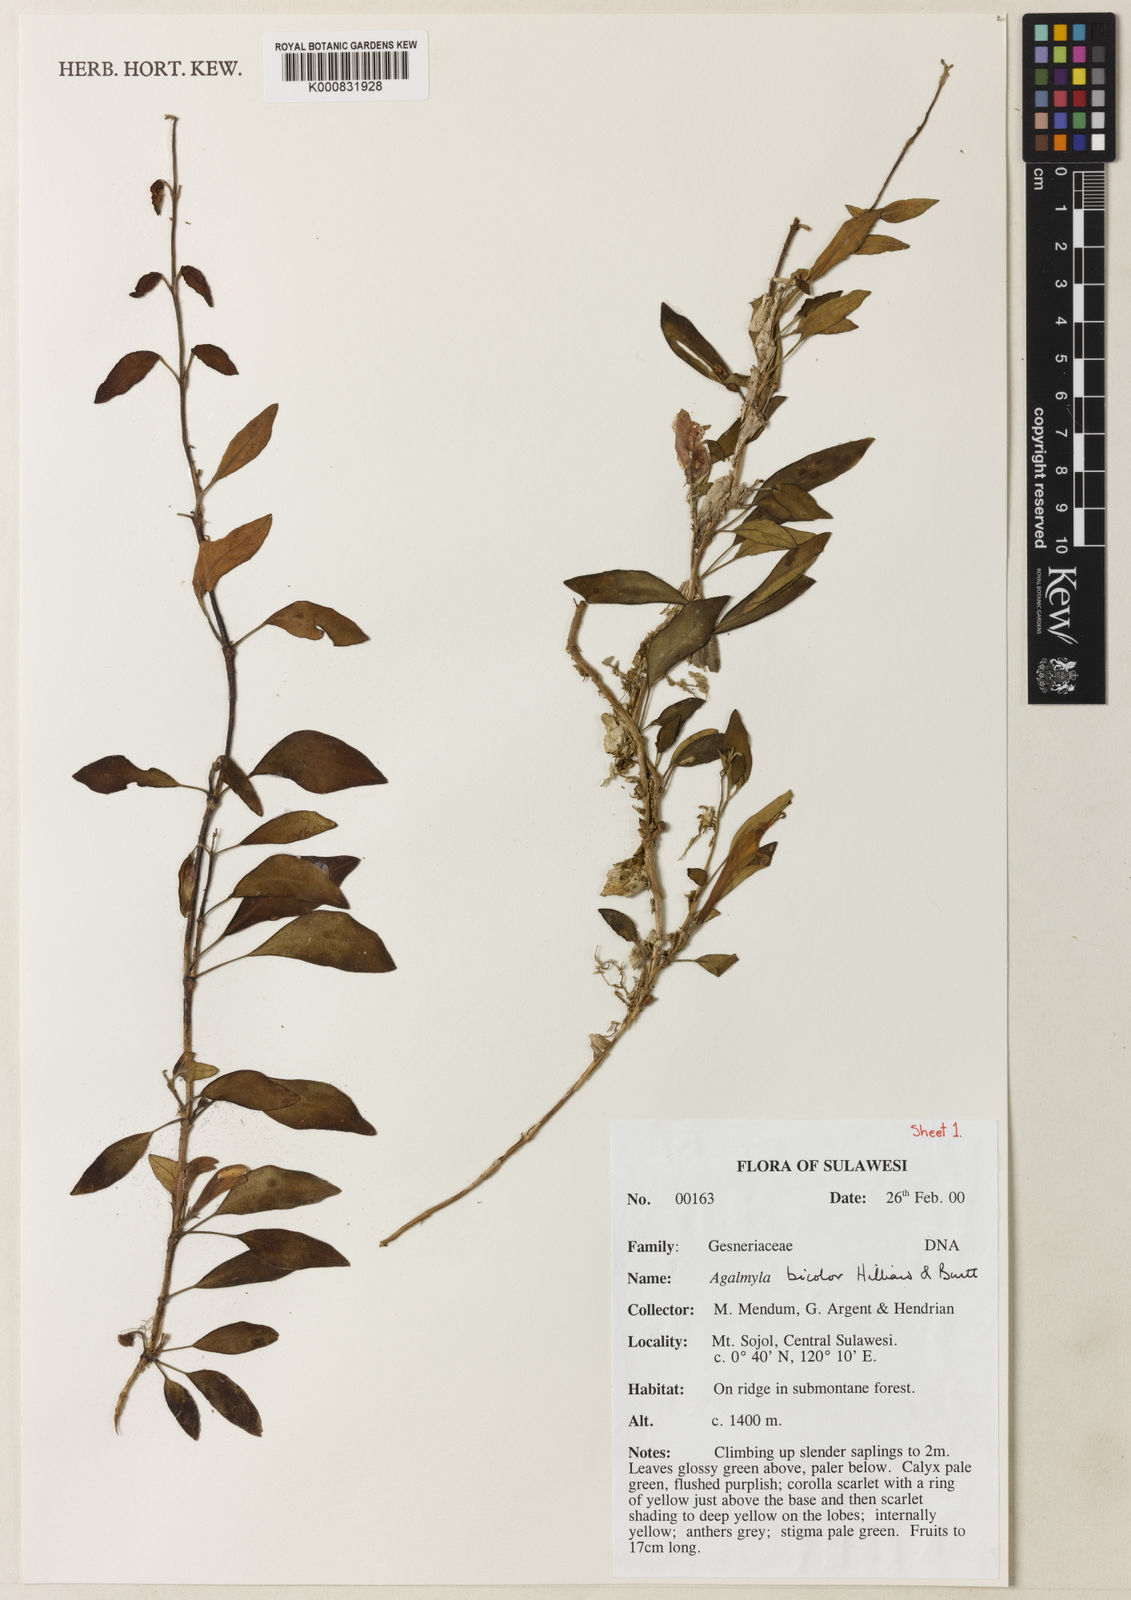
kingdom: Plantae
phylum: Tracheophyta
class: Magnoliopsida
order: Lamiales
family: Gesneriaceae
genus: Agalmyla
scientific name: Agalmyla bicolor
